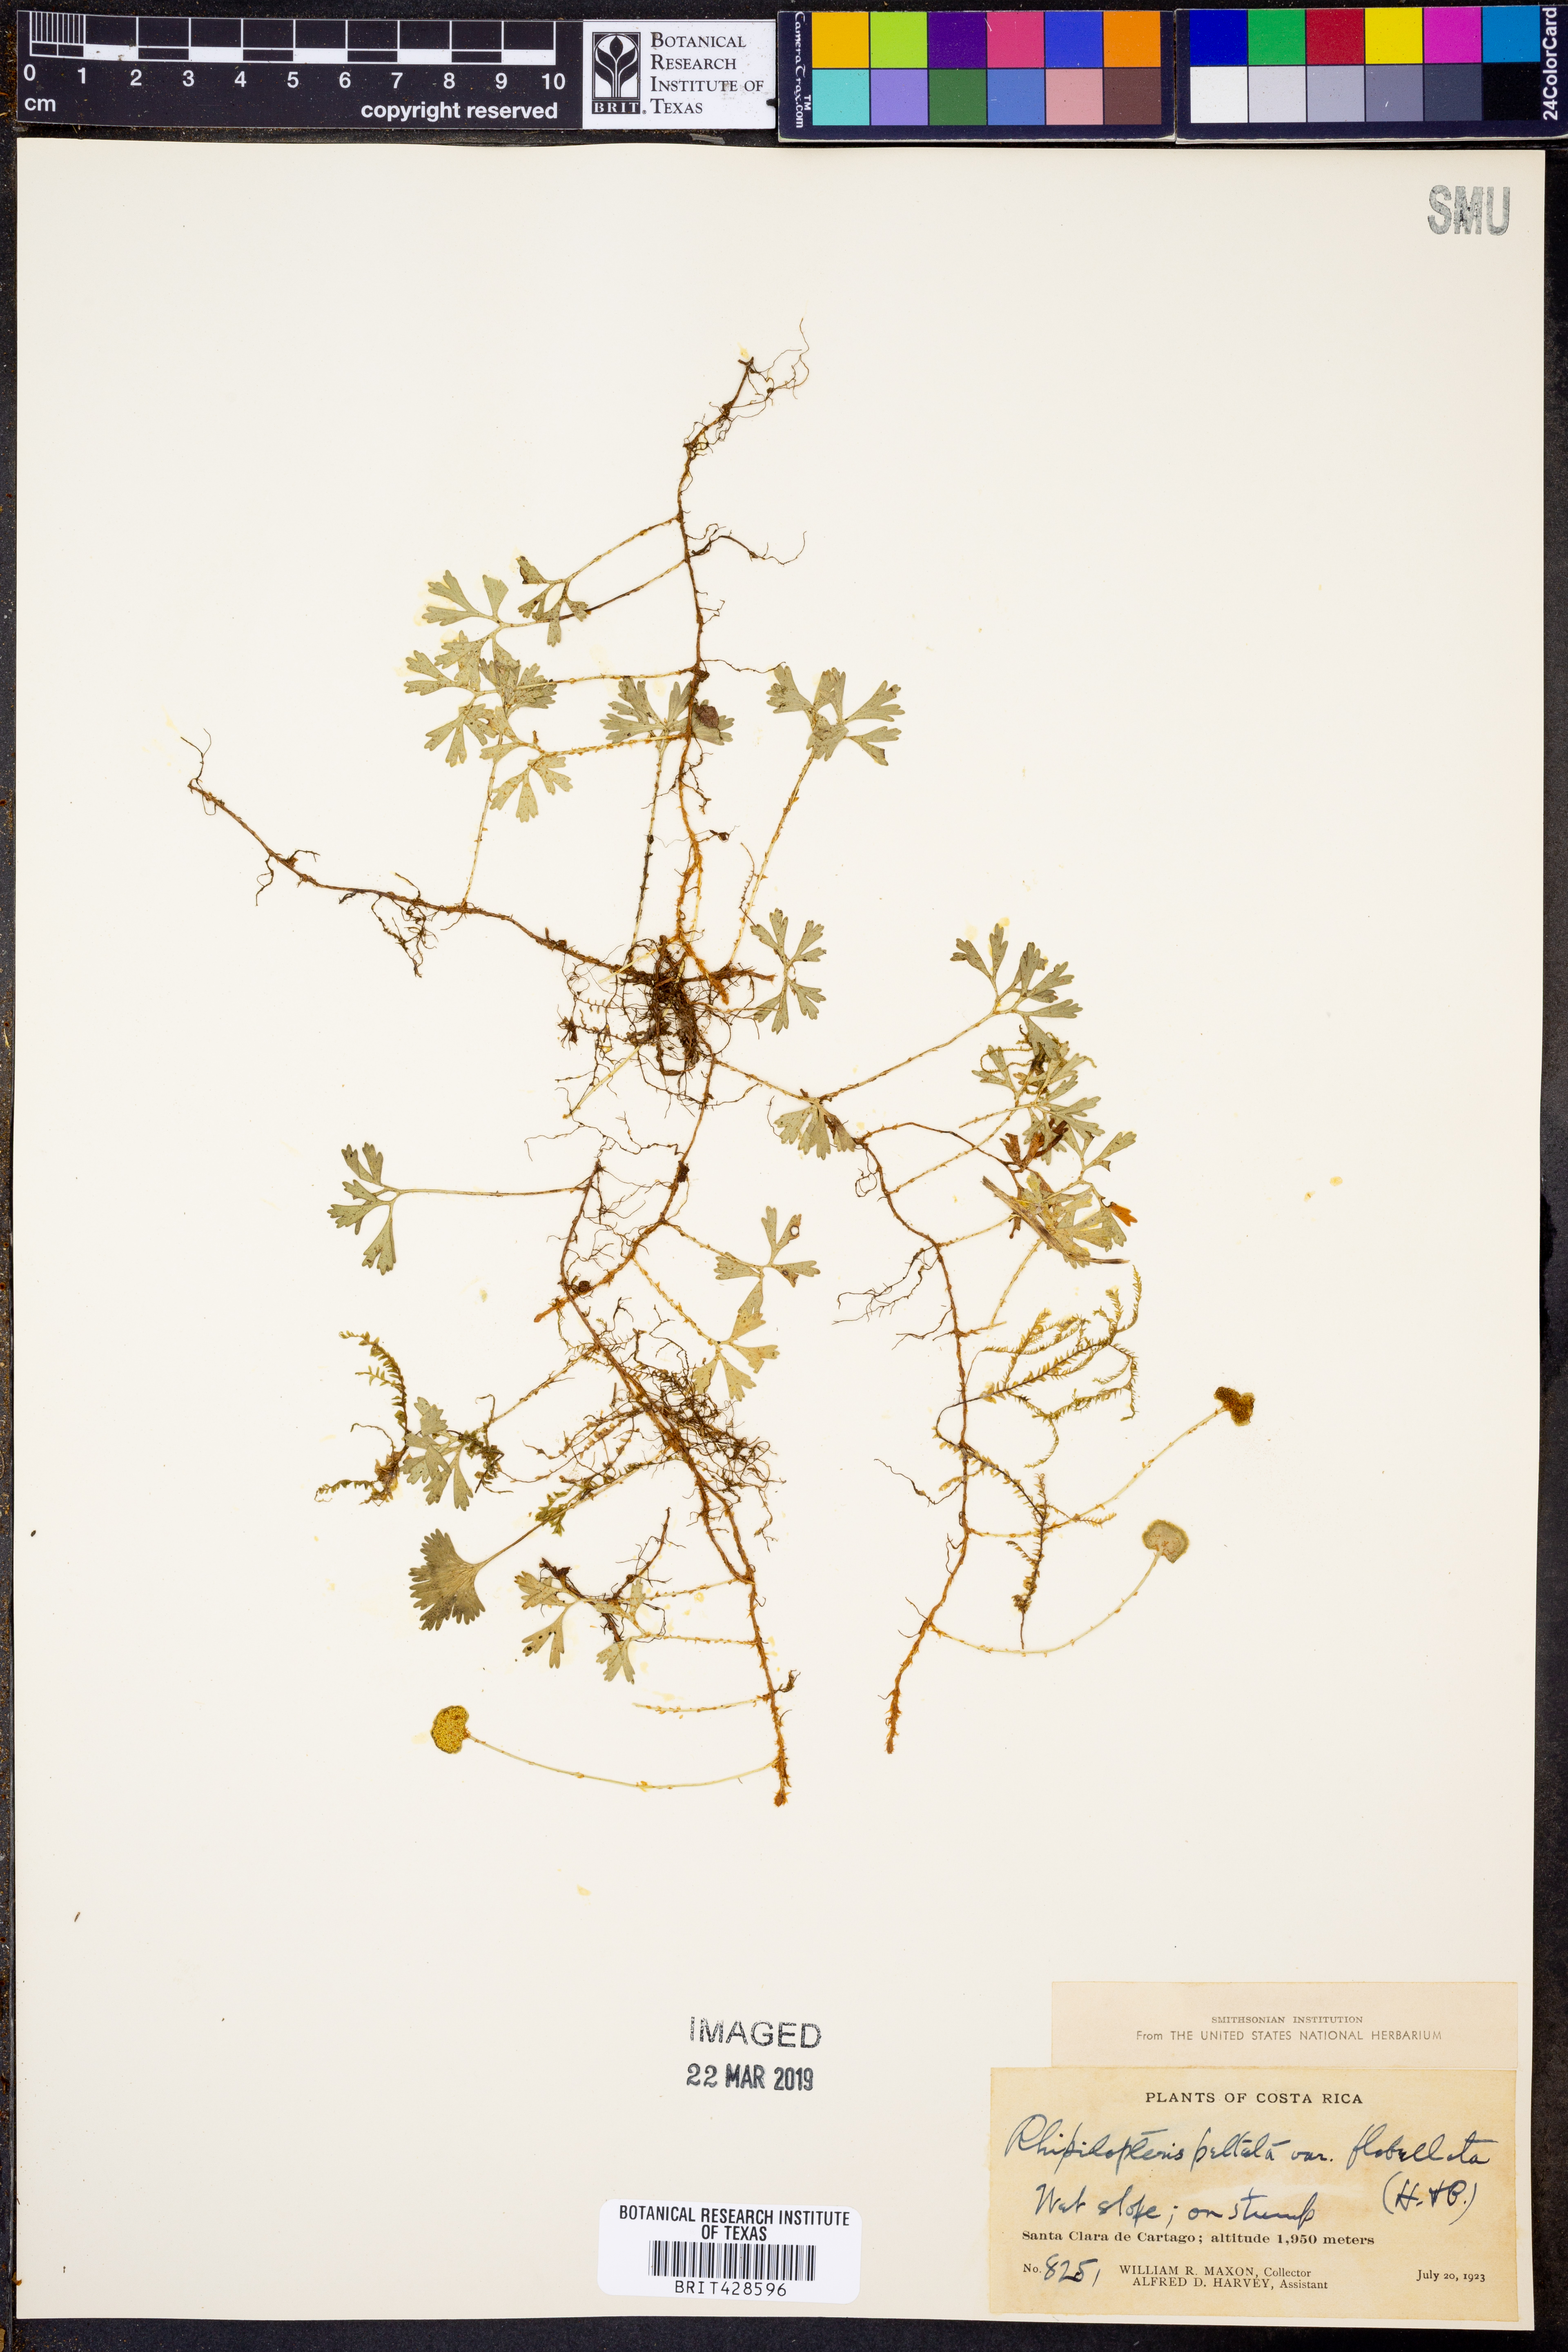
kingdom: Plantae
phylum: Tracheophyta
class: Polypodiopsida
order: Polypodiales
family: Dryopteridaceae
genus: Elaphoglossum
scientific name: Elaphoglossum peltatum
